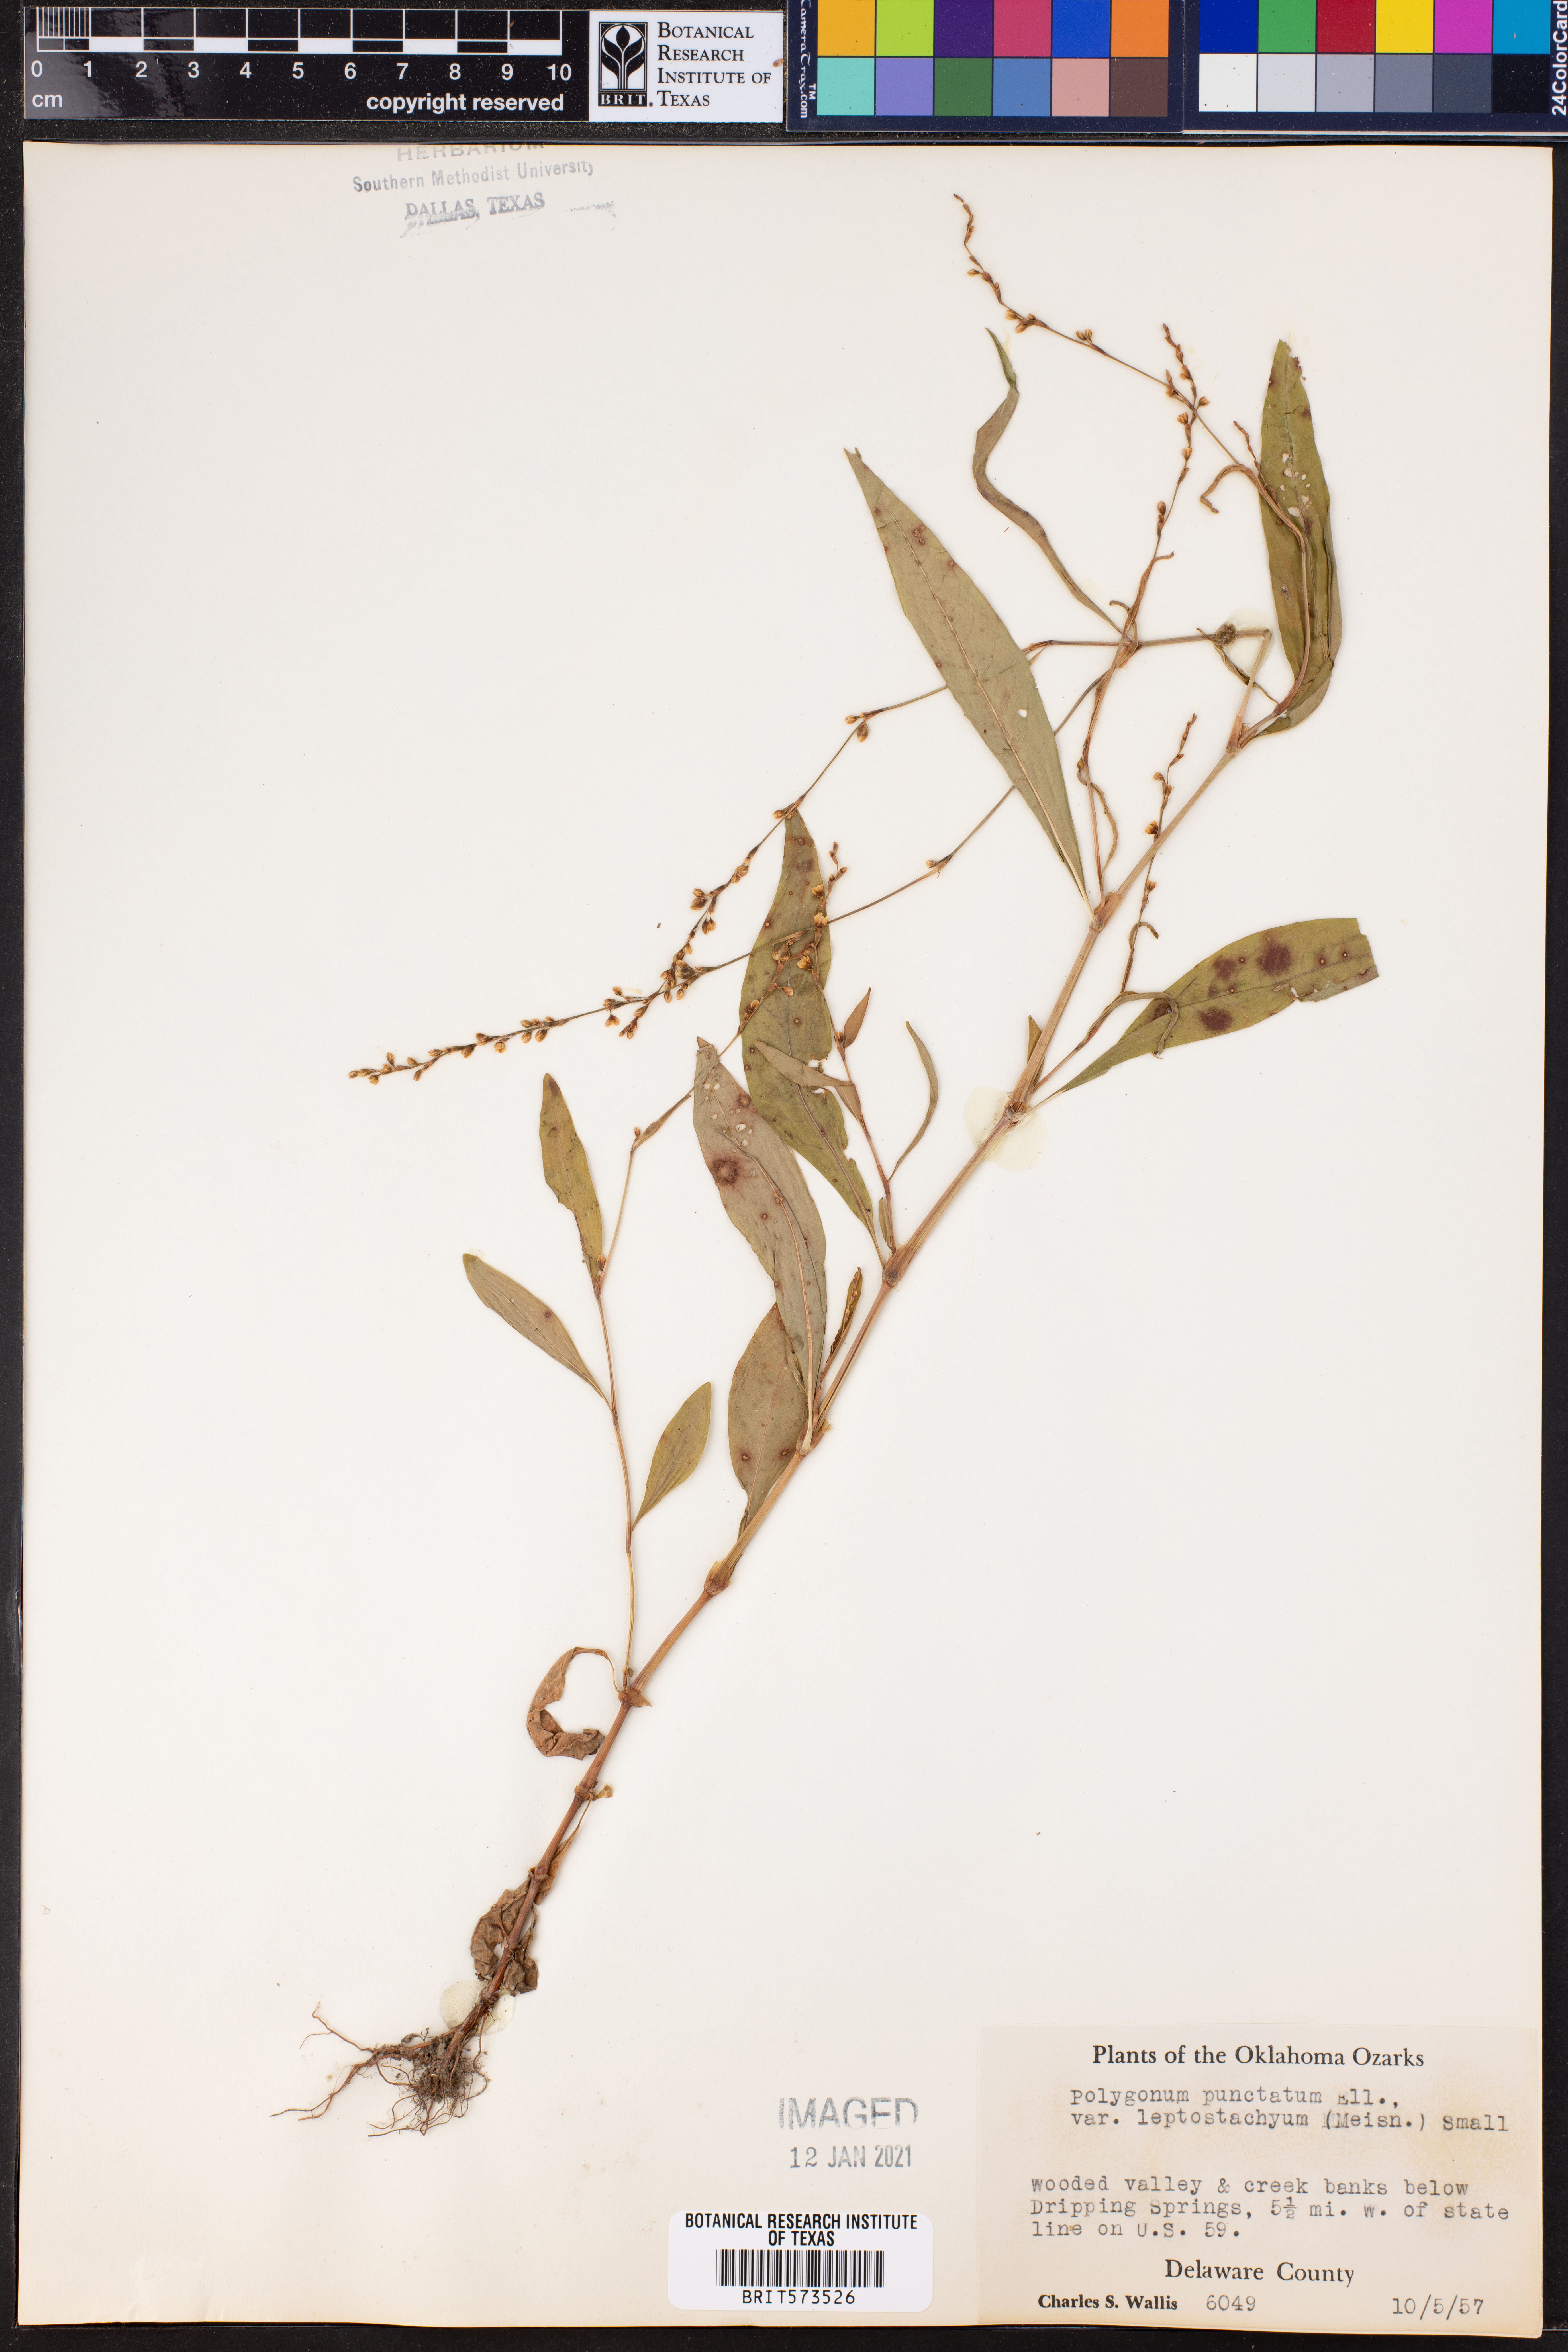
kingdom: Plantae
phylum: Tracheophyta
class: Magnoliopsida
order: Caryophyllales
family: Polygonaceae
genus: Persicaria
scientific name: Persicaria punctata
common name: Dotted smartweed
